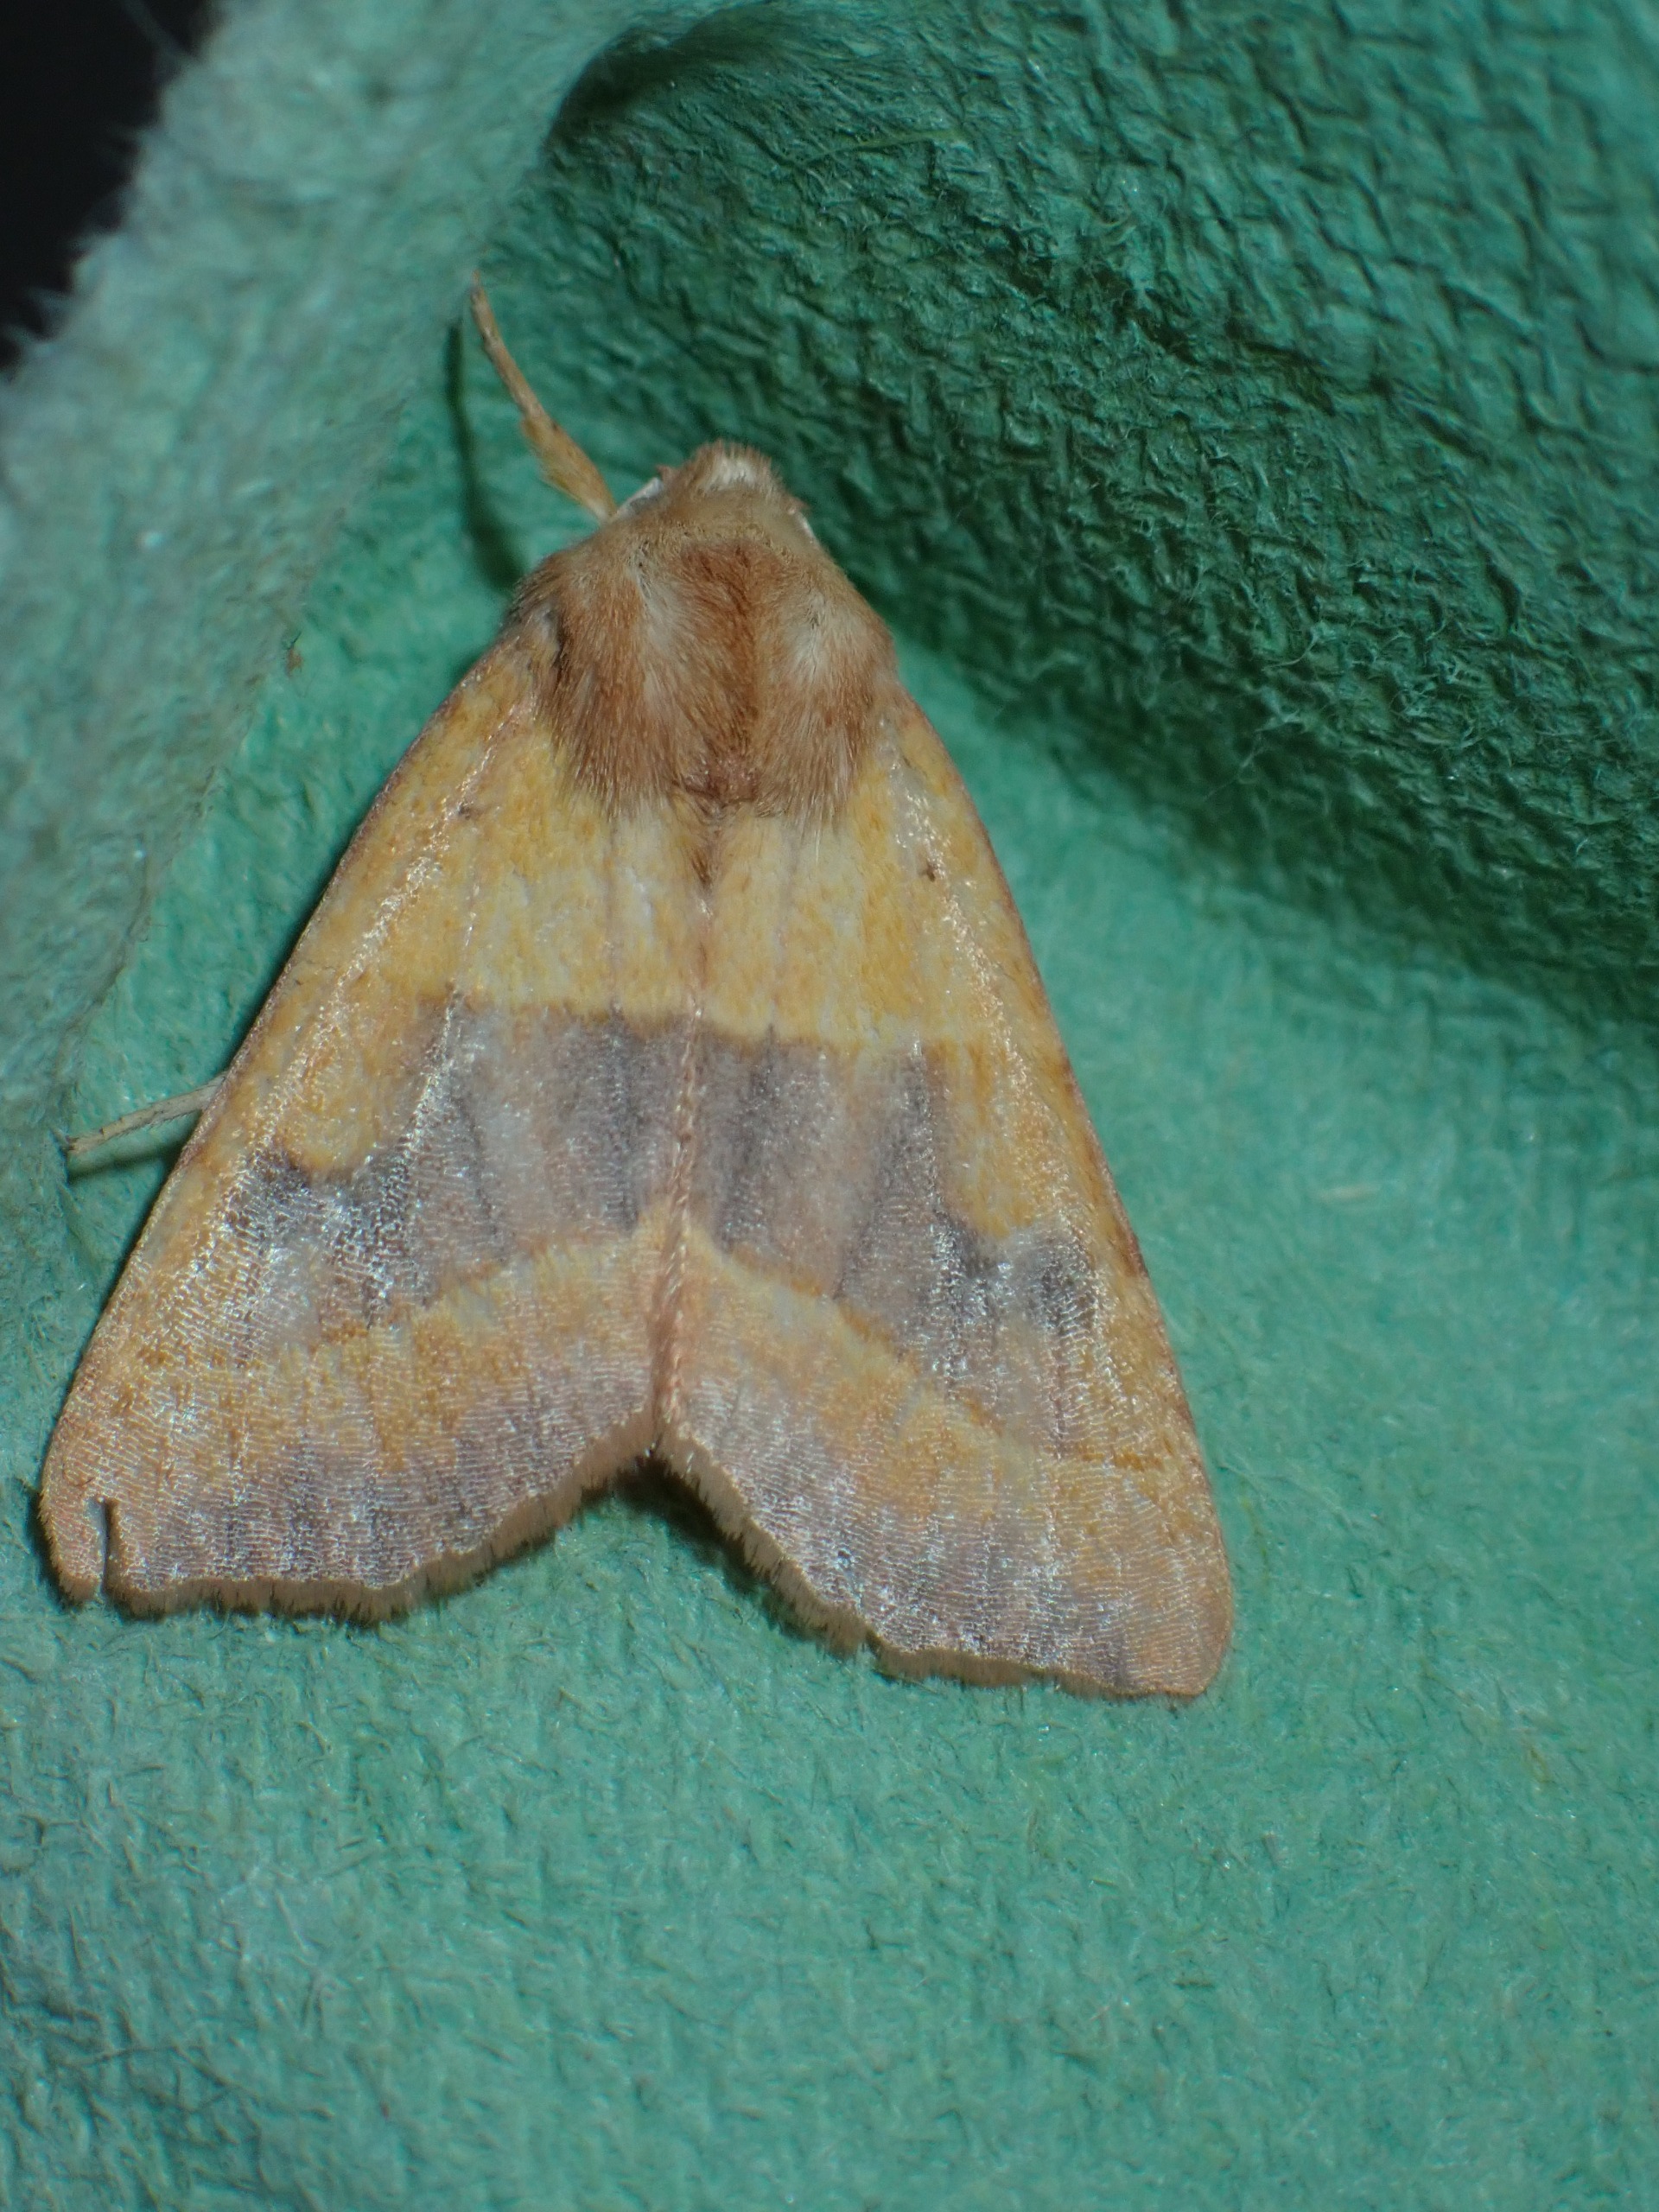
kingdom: Animalia
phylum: Arthropoda
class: Insecta
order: Lepidoptera
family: Noctuidae
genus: Atethmia
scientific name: Atethmia centrago
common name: Aske-septemberugle
